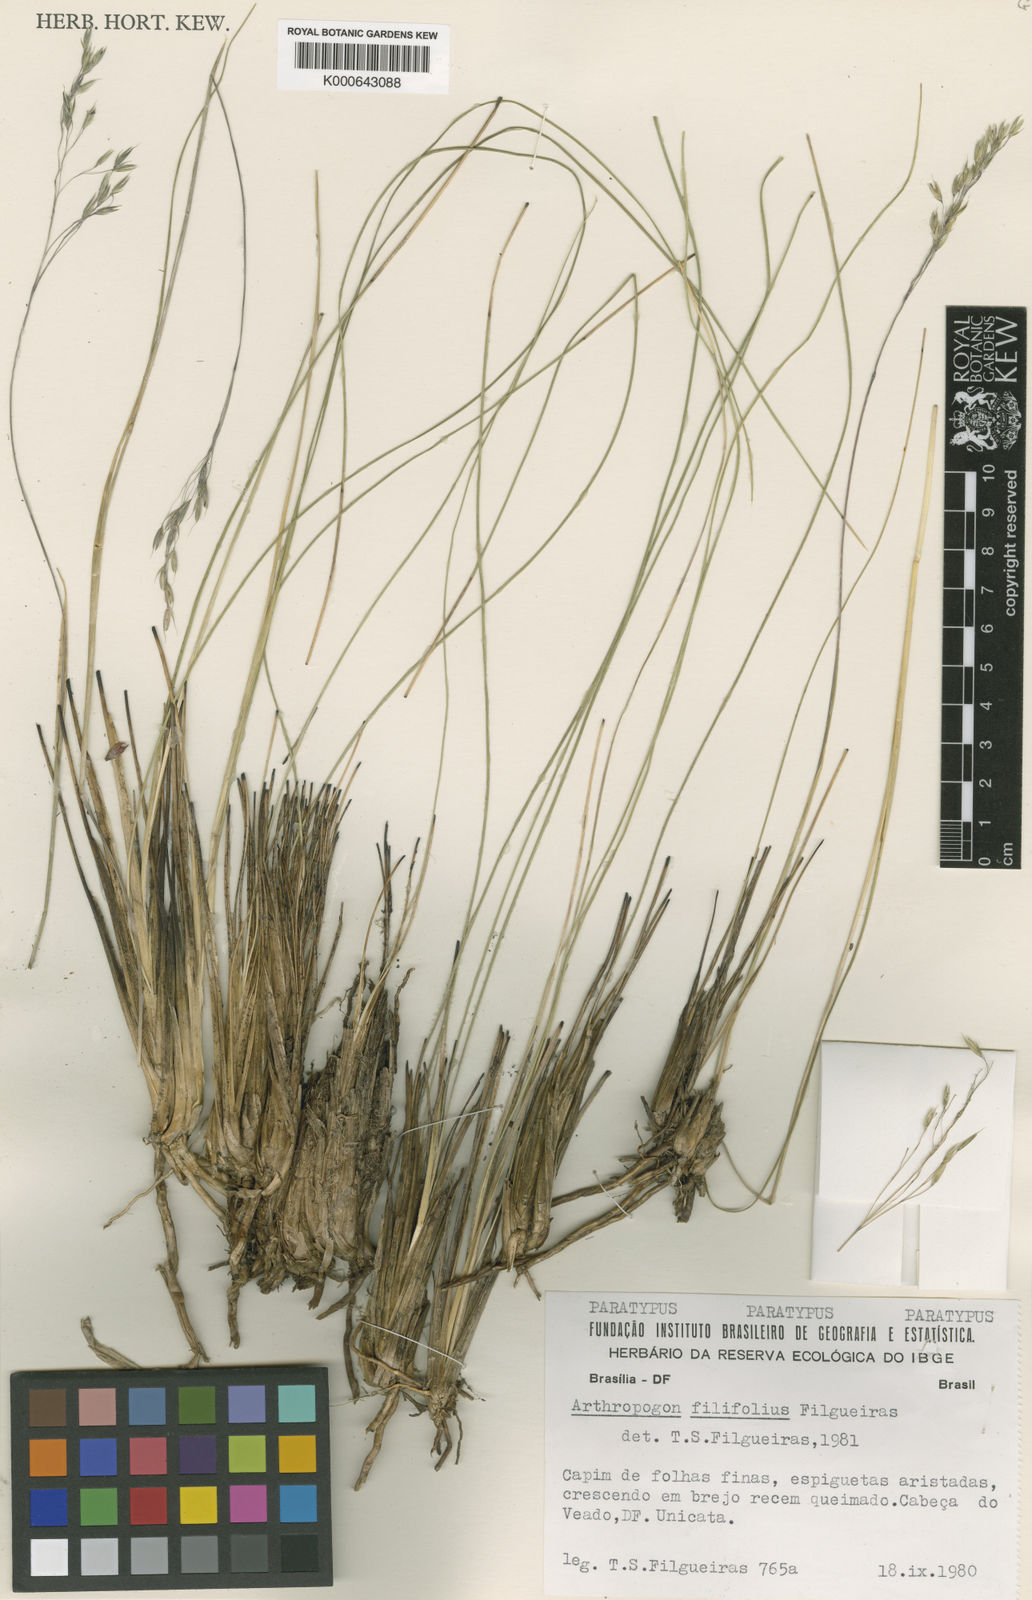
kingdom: Plantae
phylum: Tracheophyta
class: Liliopsida
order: Poales
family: Poaceae
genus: Arthropogon
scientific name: Arthropogon filifolius
